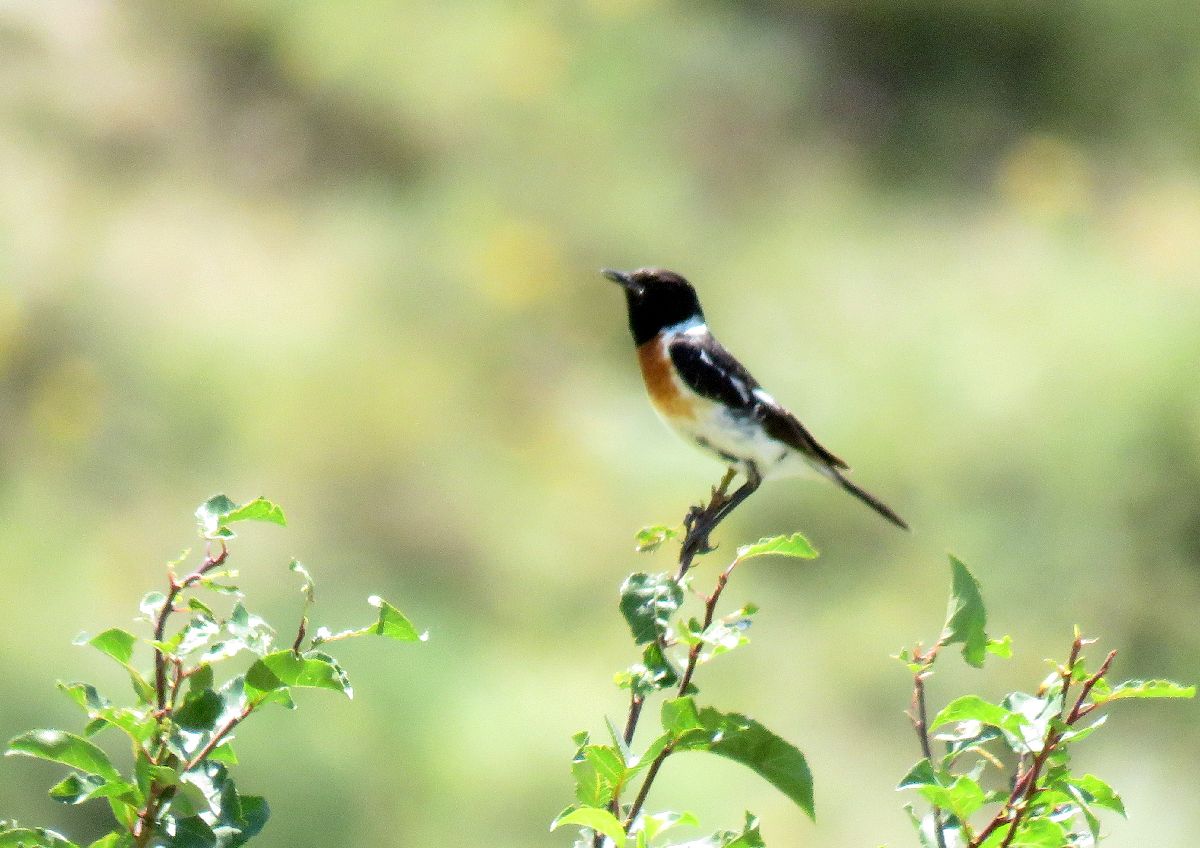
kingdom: Animalia
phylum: Chordata
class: Aves
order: Passeriformes
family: Muscicapidae
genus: Saxicola
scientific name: Saxicola maurus
